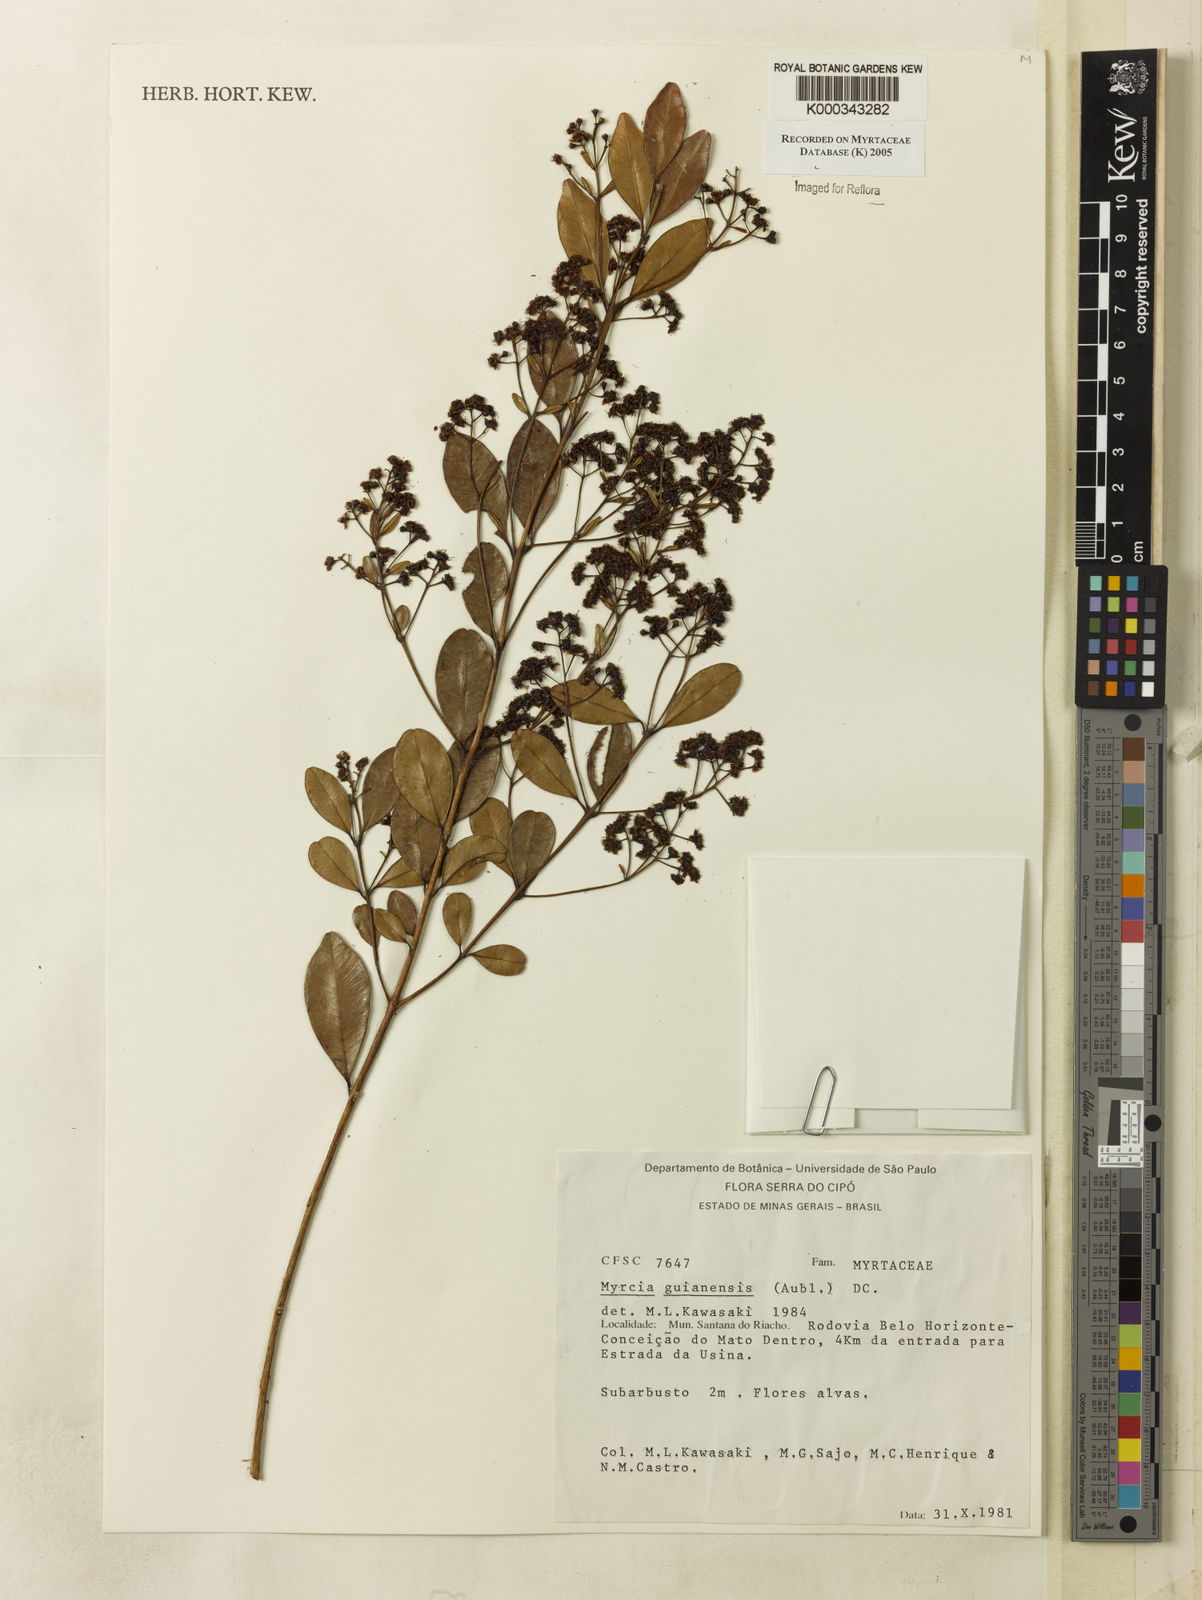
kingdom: Plantae
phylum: Tracheophyta
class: Magnoliopsida
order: Myrtales
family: Myrtaceae
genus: Myrcia
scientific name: Myrcia guianensis
